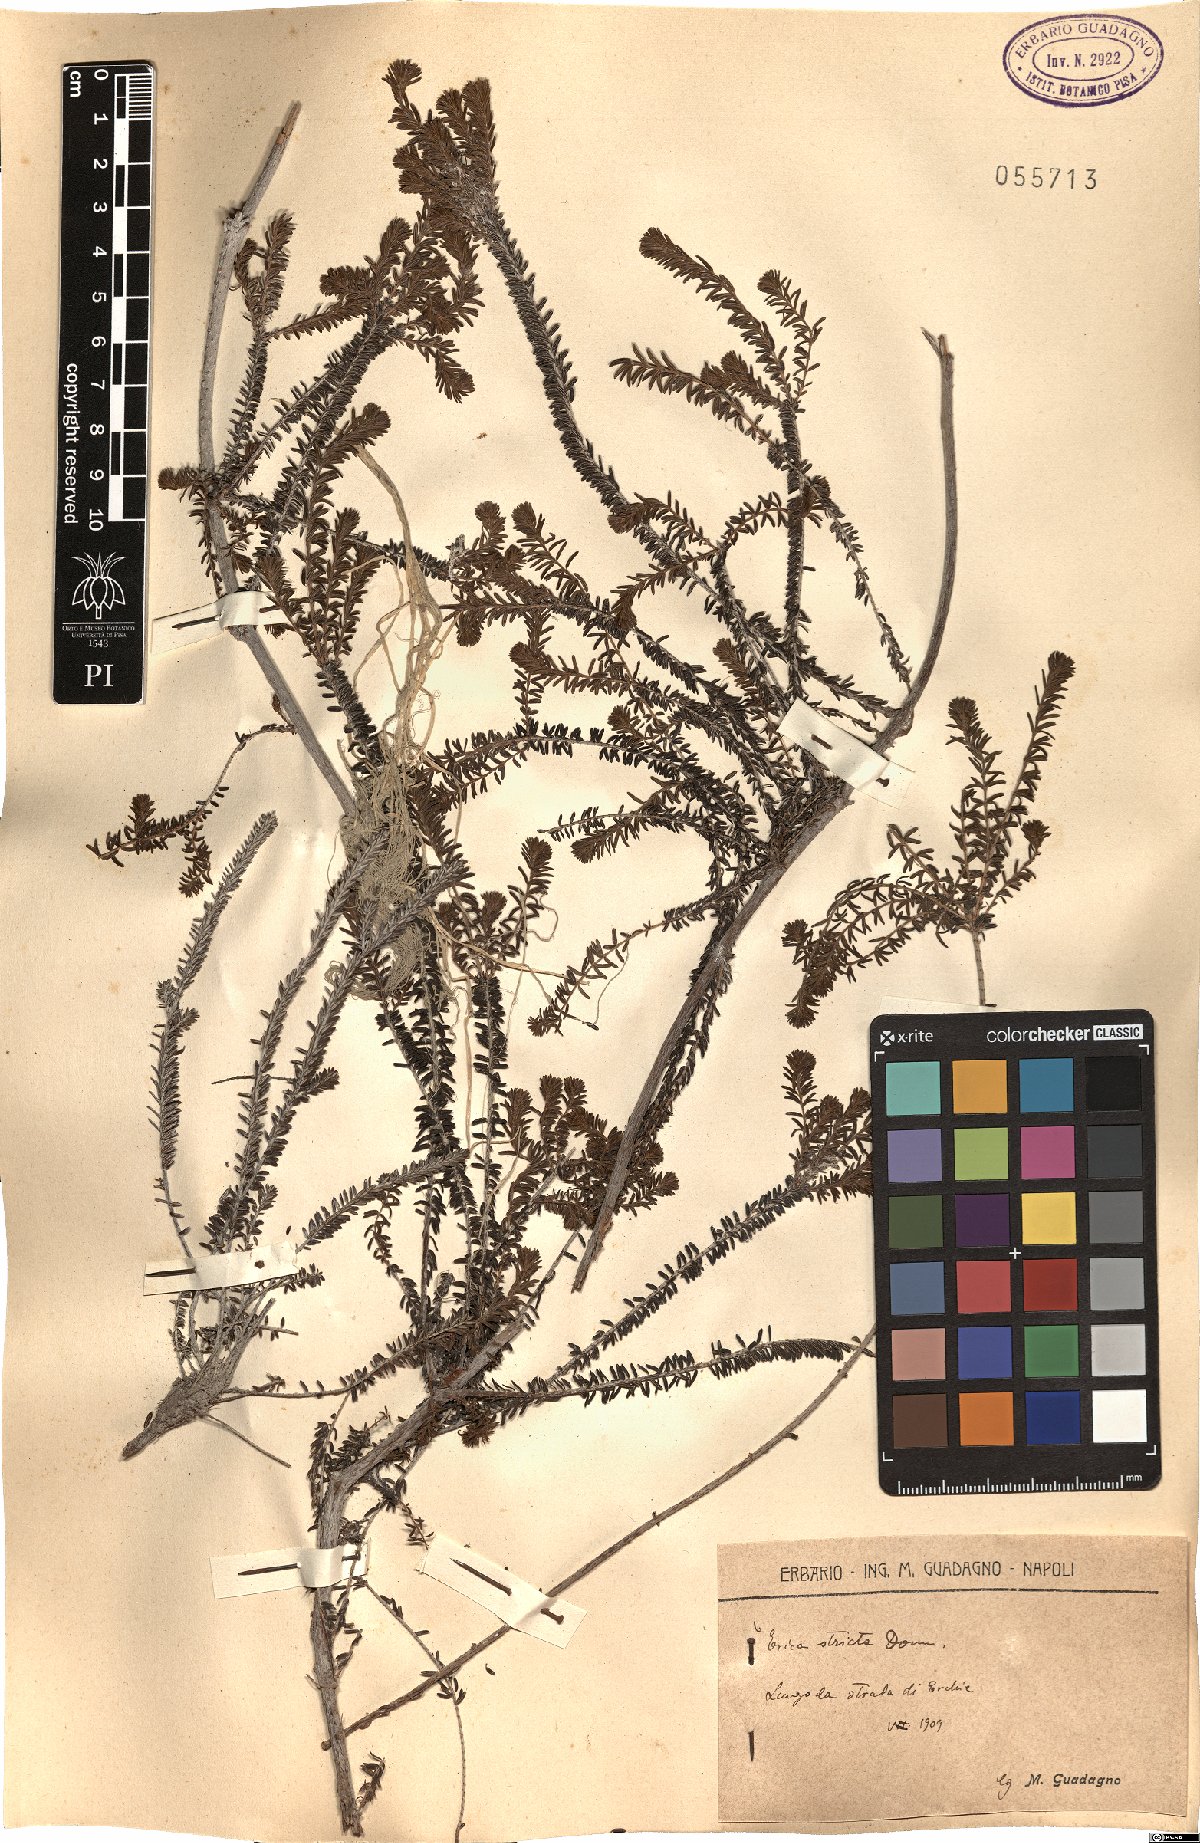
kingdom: Plantae
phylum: Tracheophyta
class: Magnoliopsida
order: Ericales
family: Ericaceae
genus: Erica
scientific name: Erica terminalis
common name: Corsican heath
